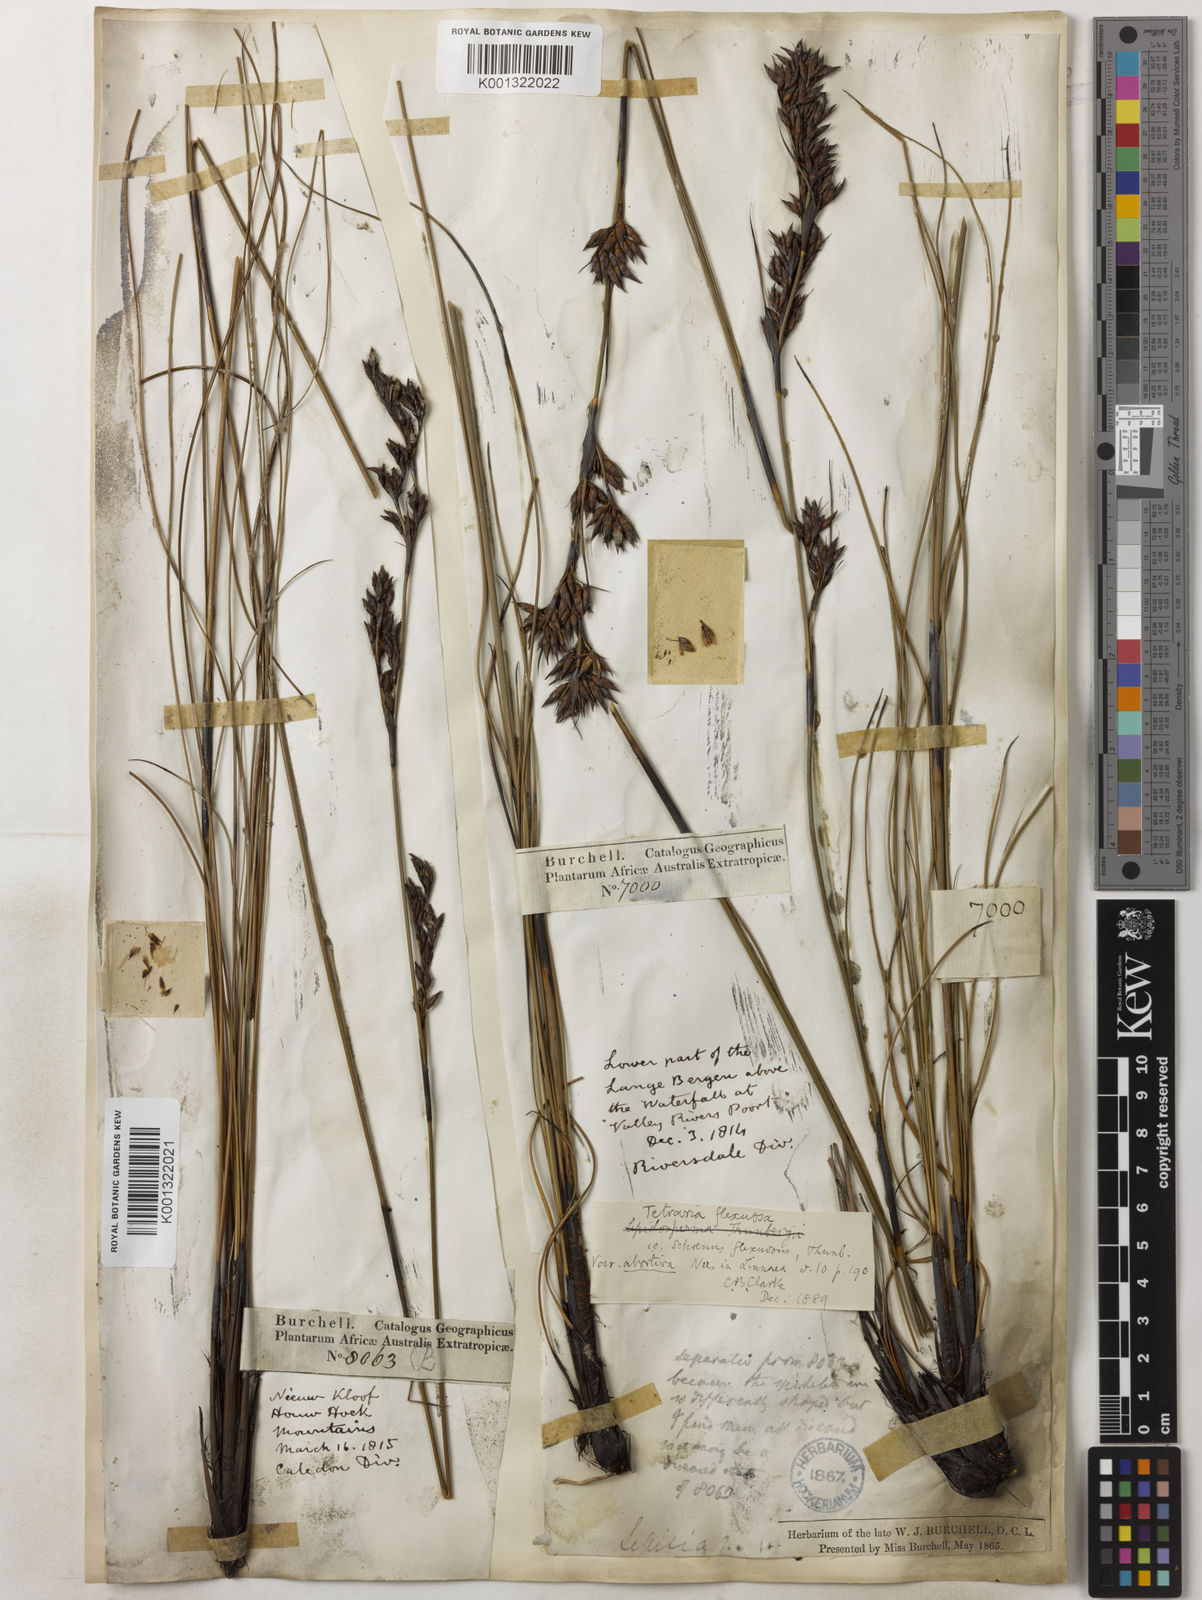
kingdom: Plantae
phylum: Tracheophyta
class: Liliopsida
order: Poales
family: Cyperaceae
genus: Tetraria
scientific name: Tetraria flexuosa
